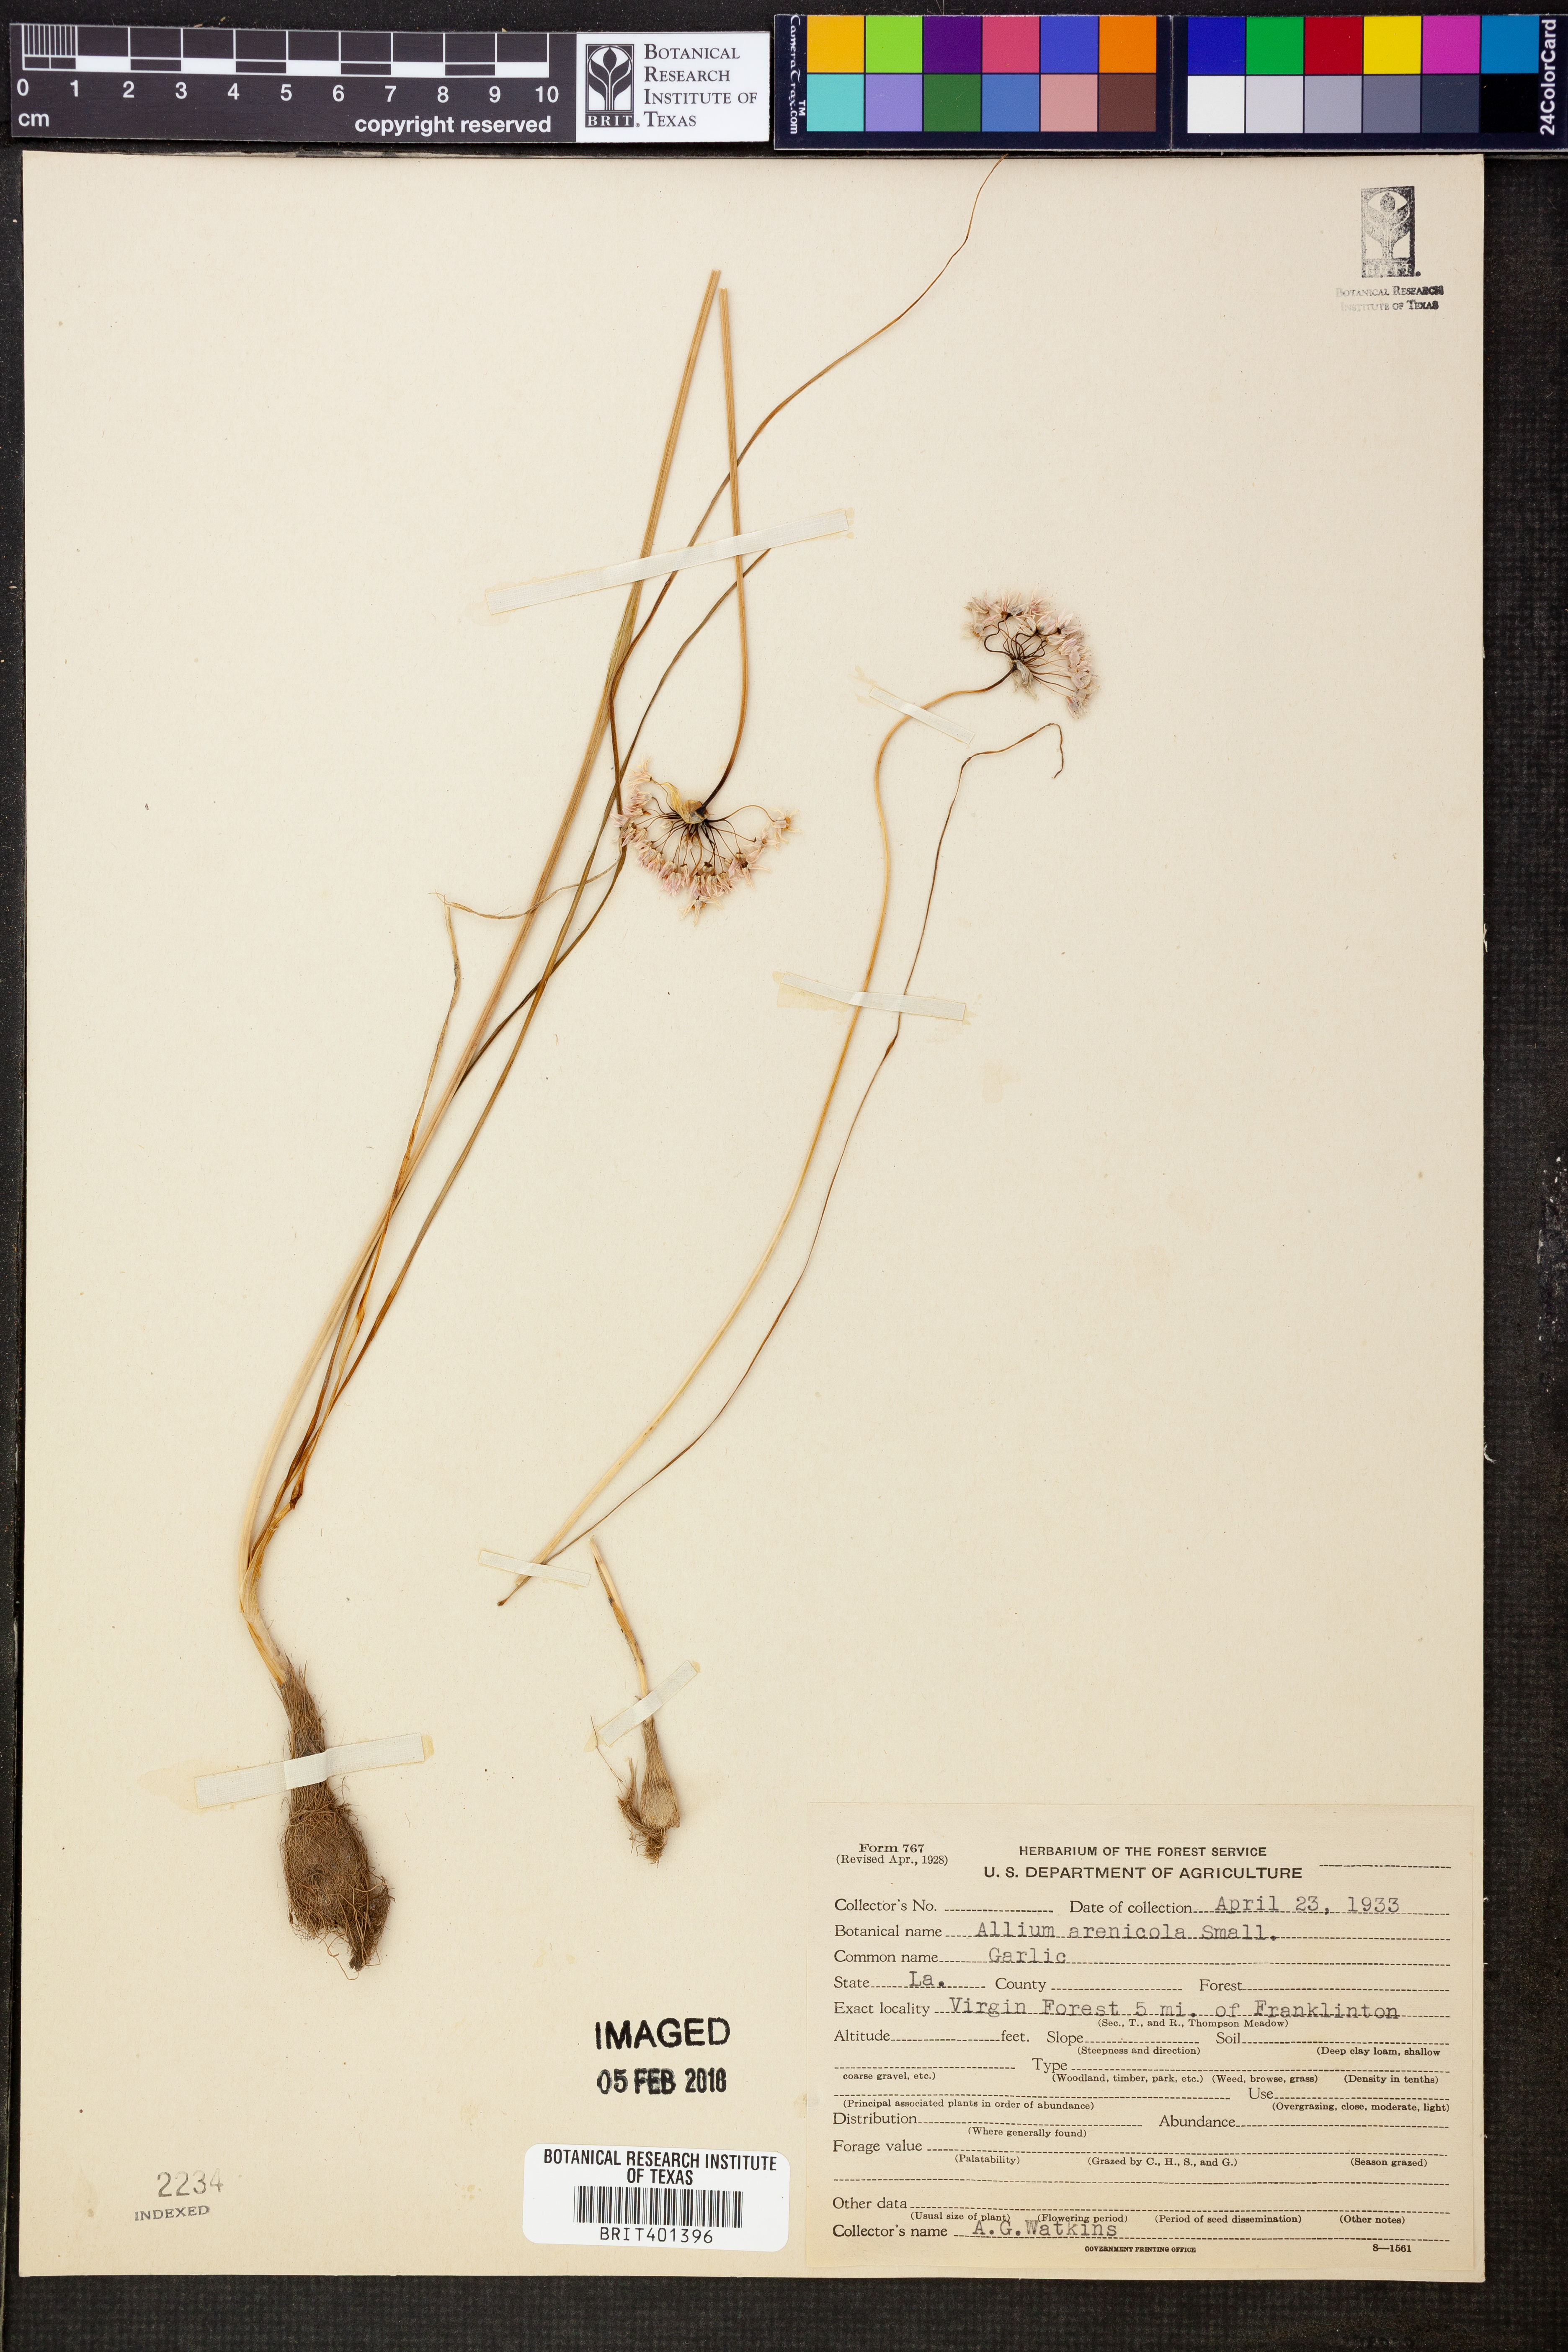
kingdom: Plantae
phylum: Tracheophyta
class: Liliopsida
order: Asparagales
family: Amaryllidaceae
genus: Allium
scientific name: Allium geyeri
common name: Geyer's onion
